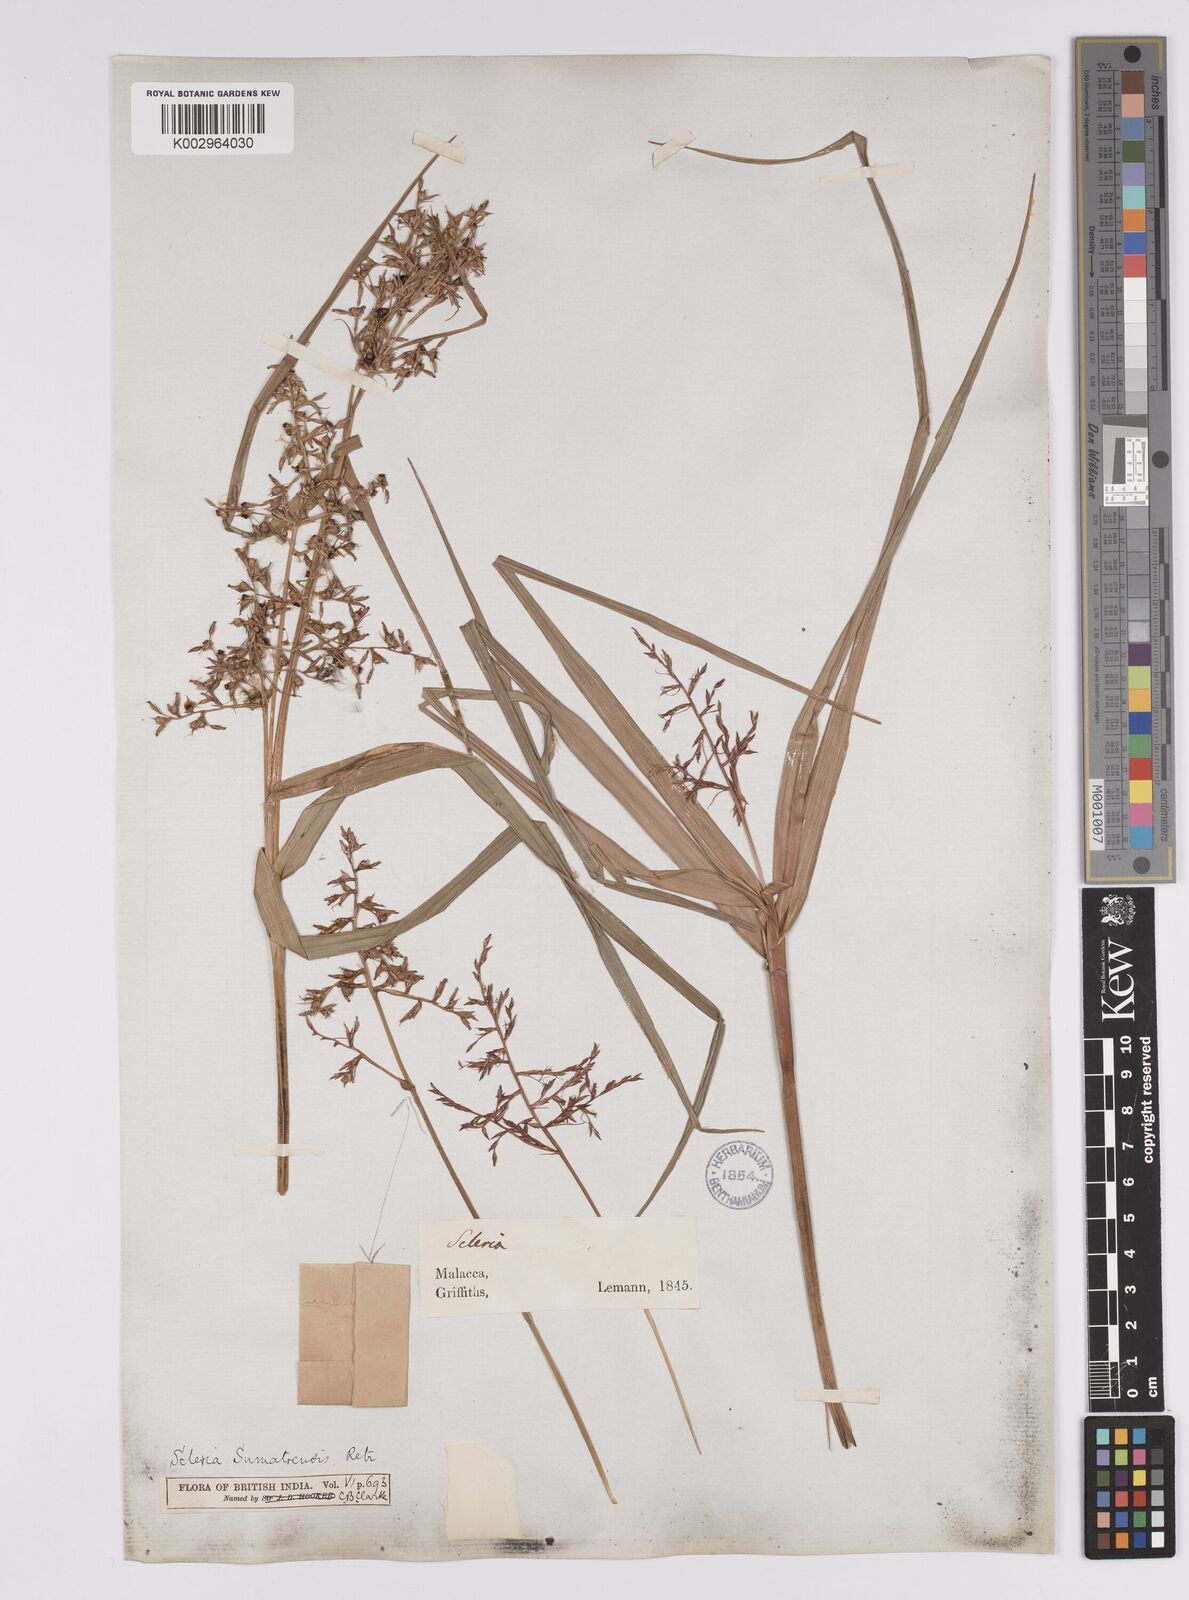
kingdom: Plantae
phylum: Tracheophyta
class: Liliopsida
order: Poales
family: Cyperaceae
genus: Scleria
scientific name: Scleria sumatrensis
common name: Sumatran scleria
